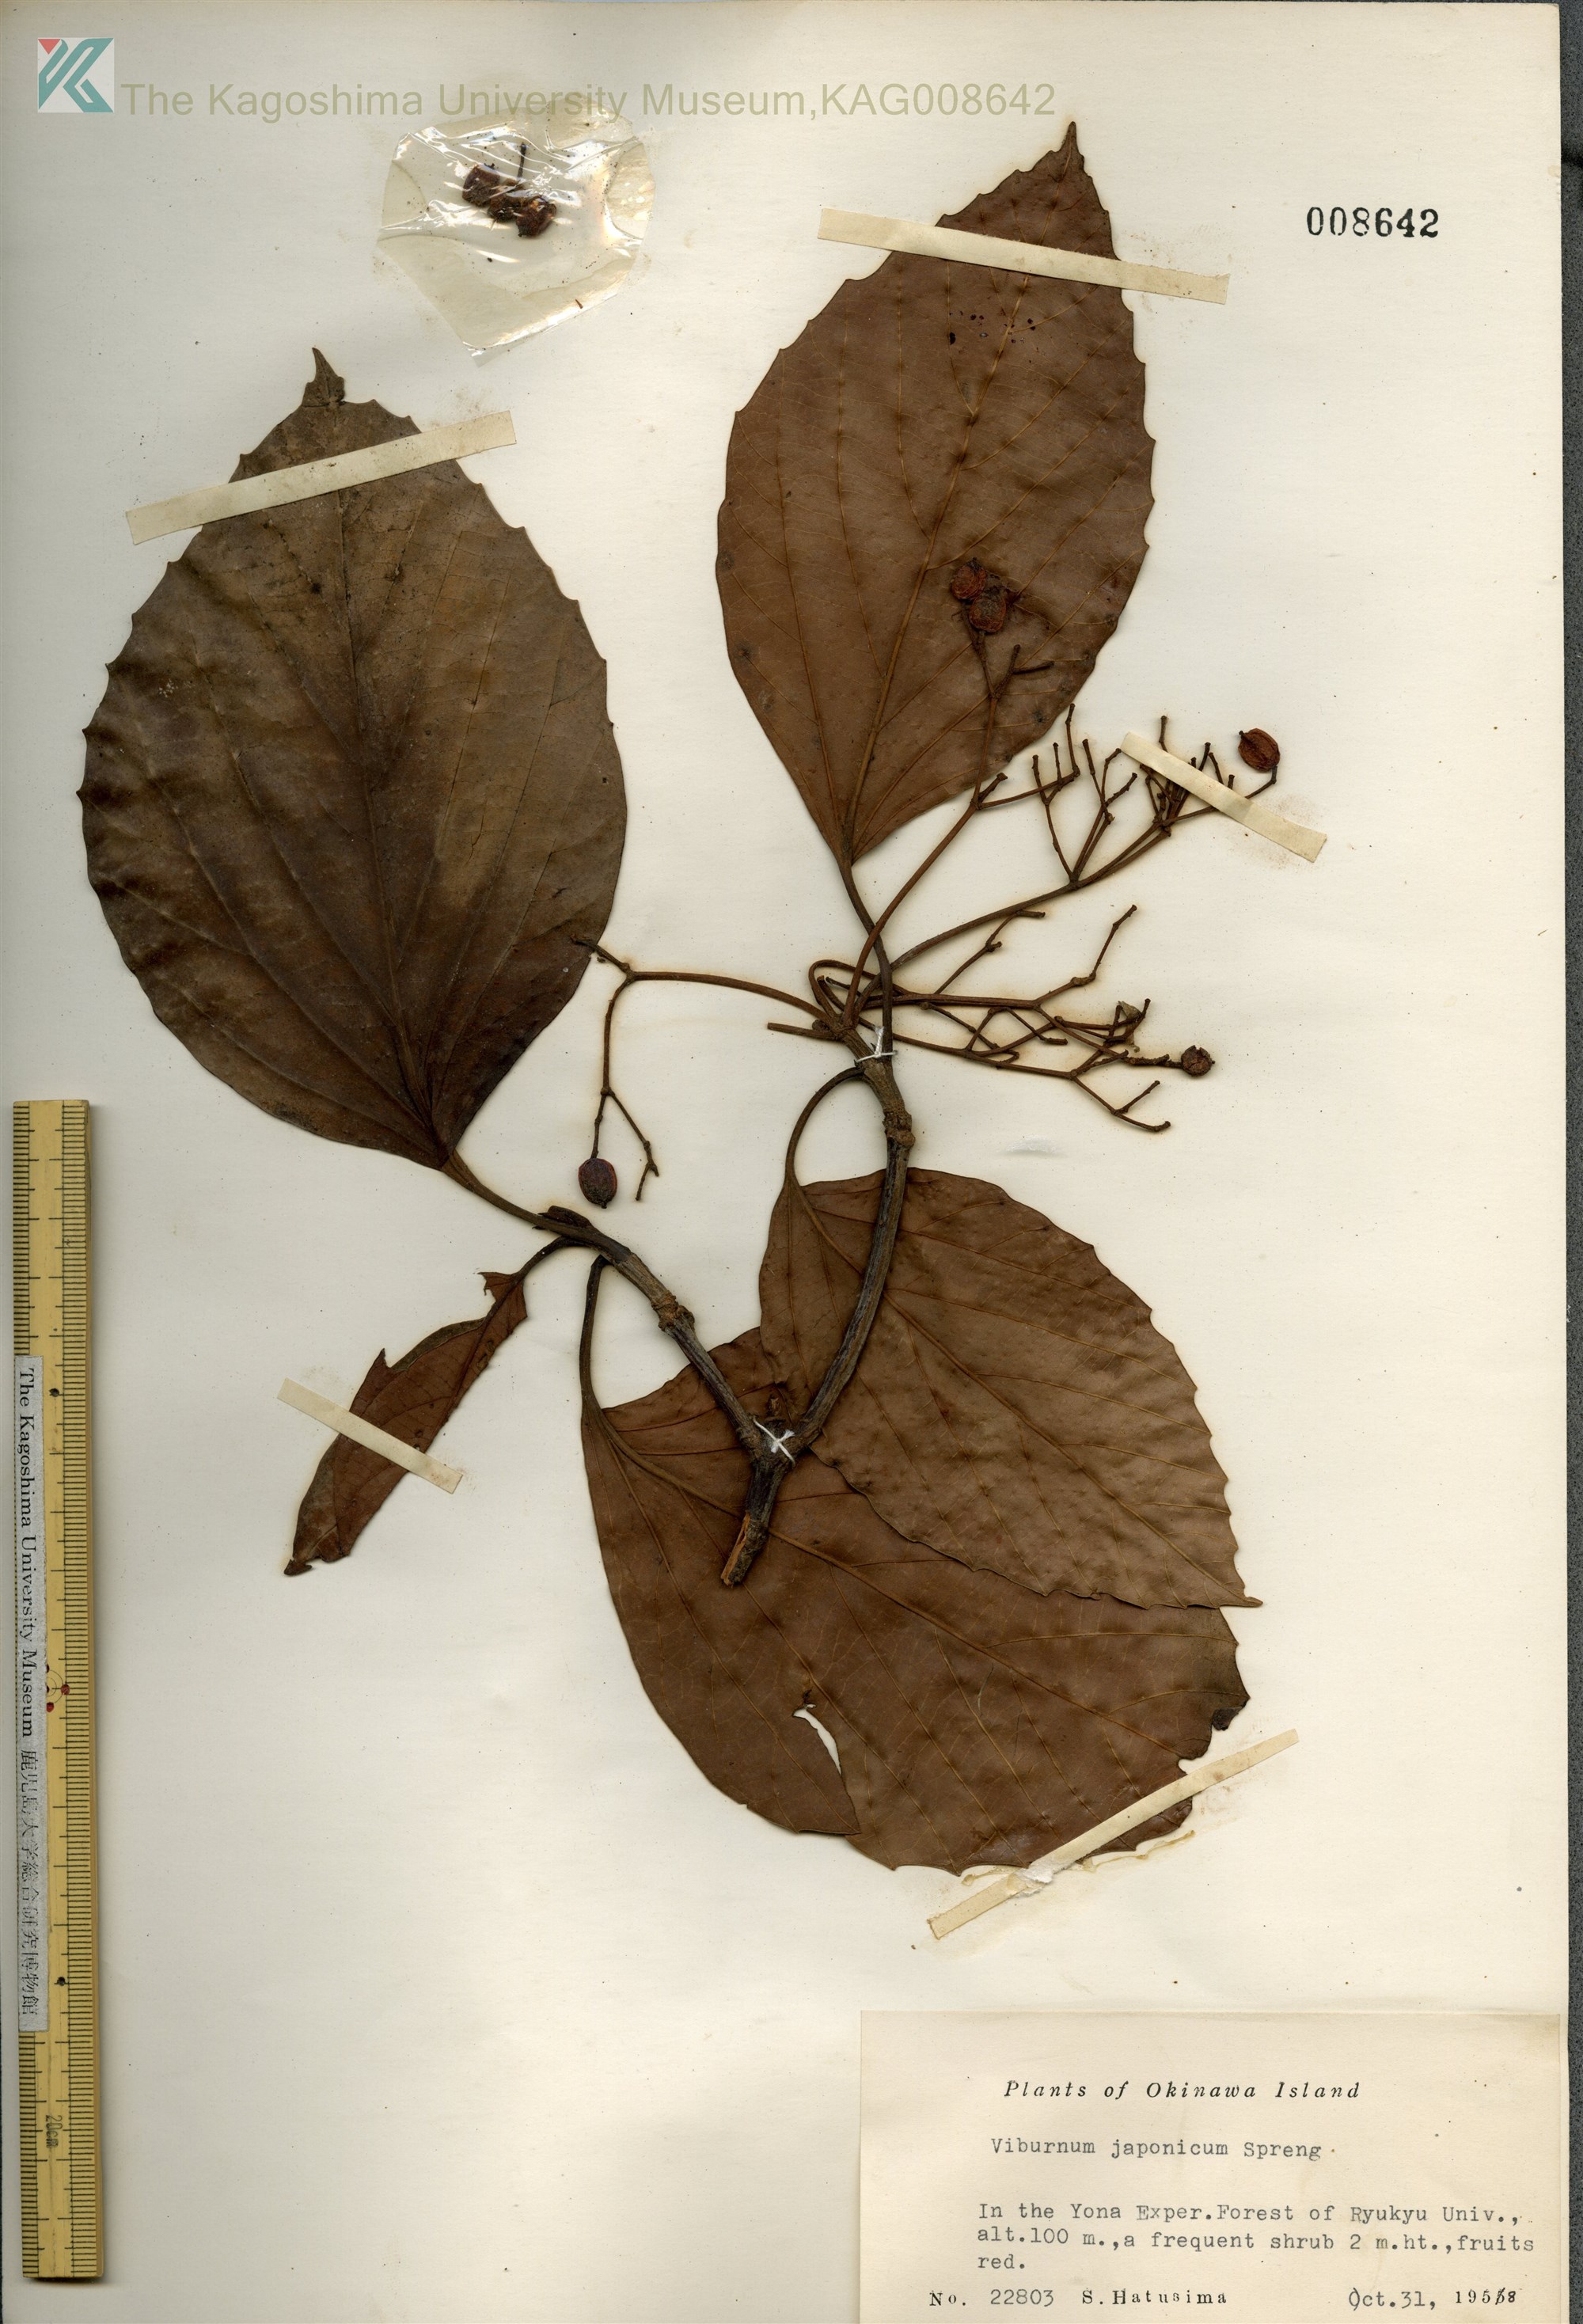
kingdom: Plantae
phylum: Tracheophyta
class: Magnoliopsida
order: Dipsacales
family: Viburnaceae
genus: Viburnum
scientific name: Viburnum japonicum
